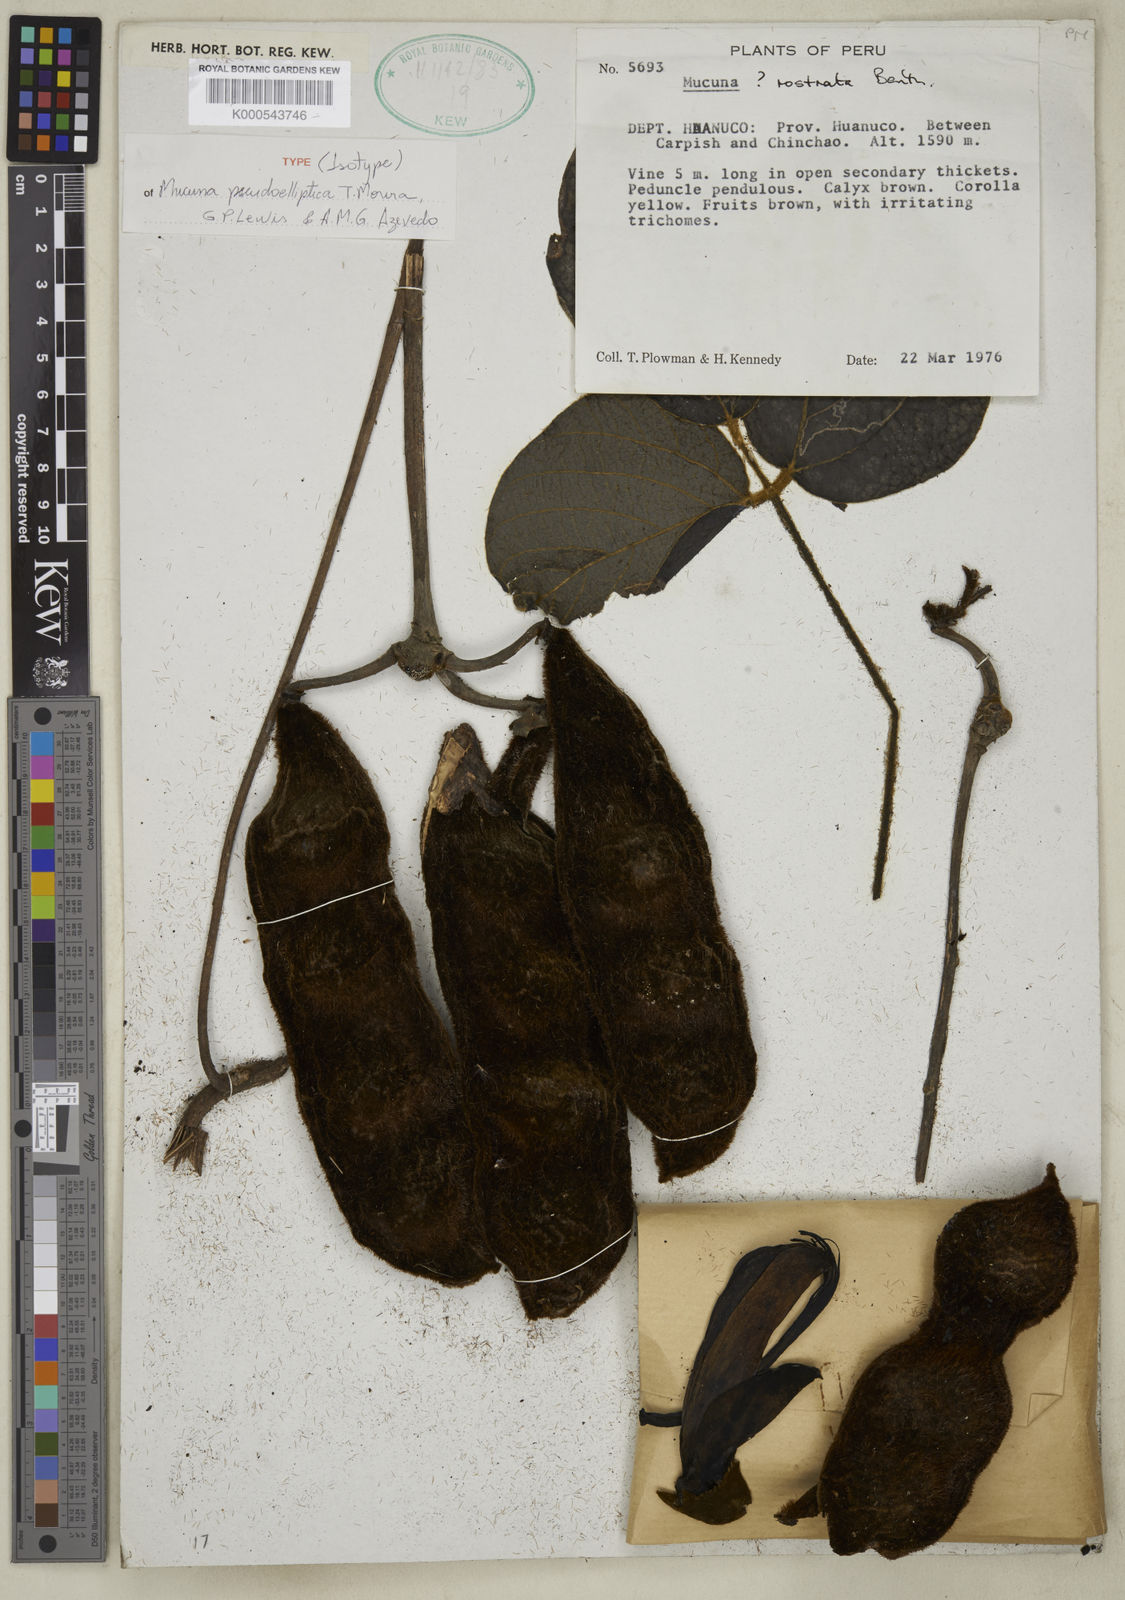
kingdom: Plantae
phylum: Tracheophyta
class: Magnoliopsida
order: Fabales
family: Fabaceae
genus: Mucuna
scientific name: Mucuna pseudoelliptica
